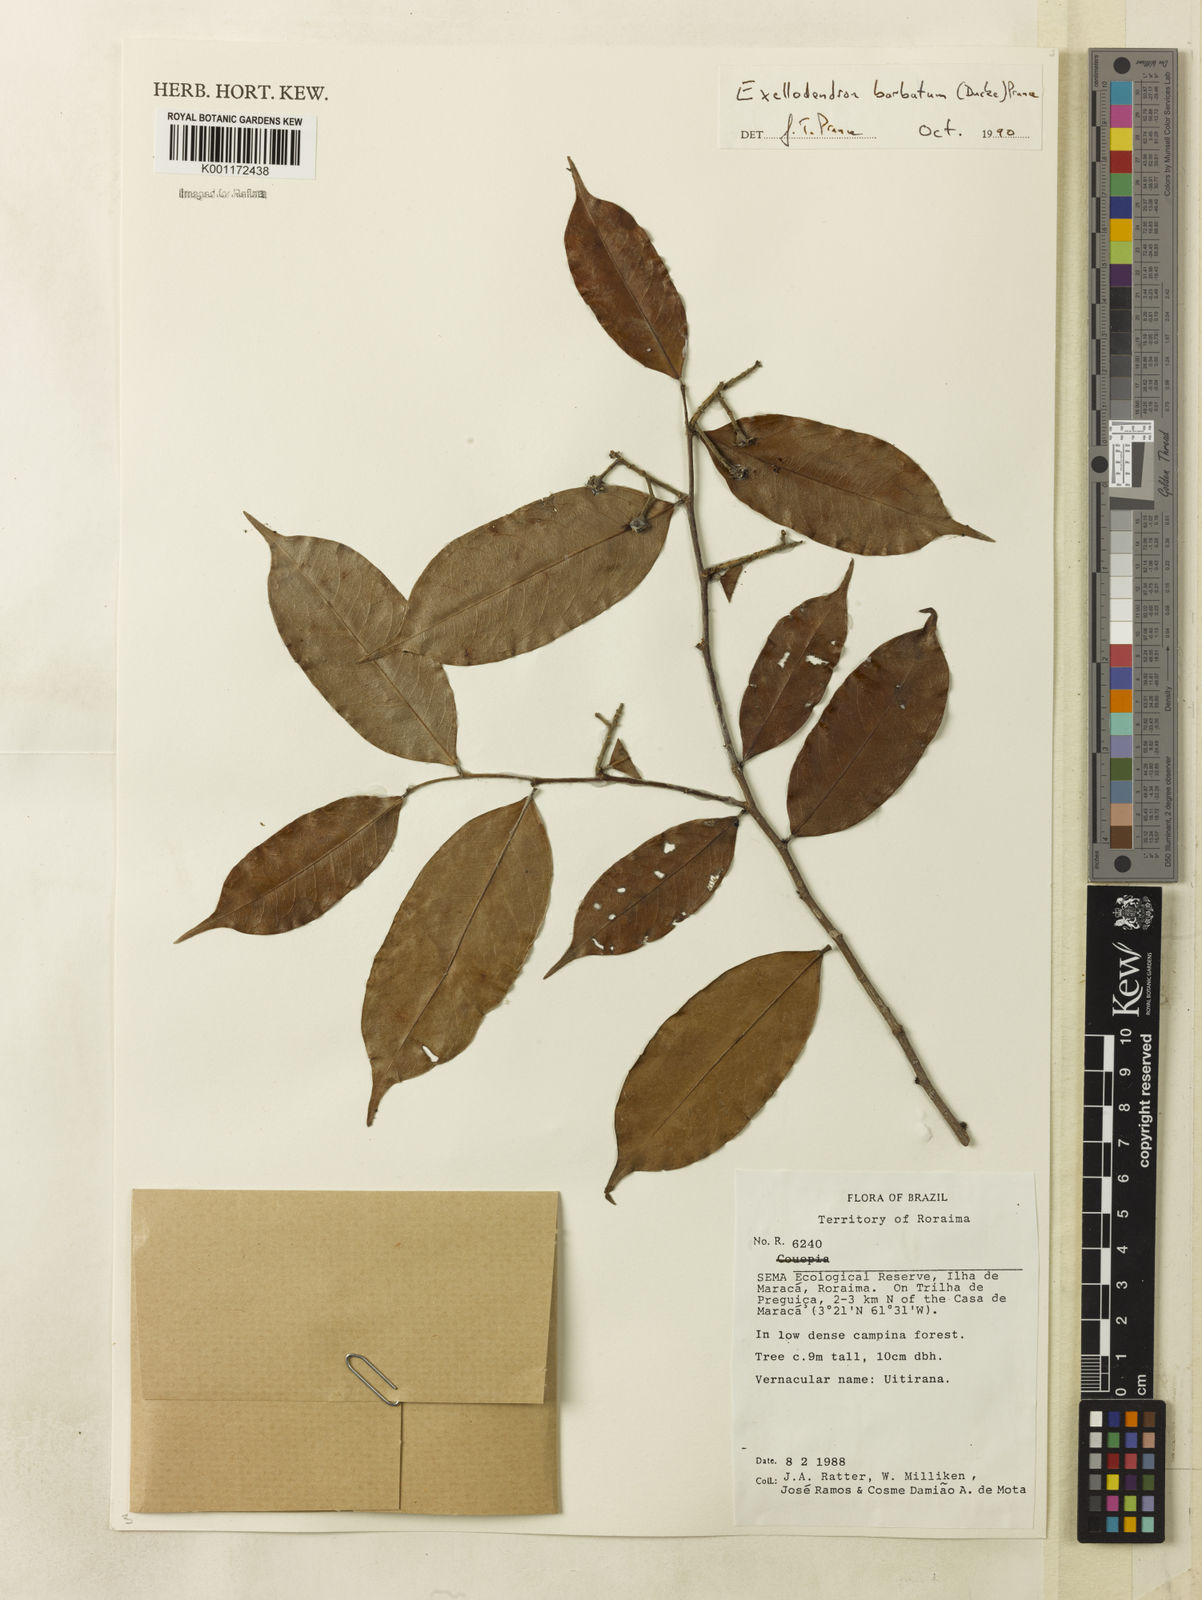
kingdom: Plantae
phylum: Tracheophyta
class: Magnoliopsida
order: Malpighiales
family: Chrysobalanaceae
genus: Atuna
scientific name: Atuna
